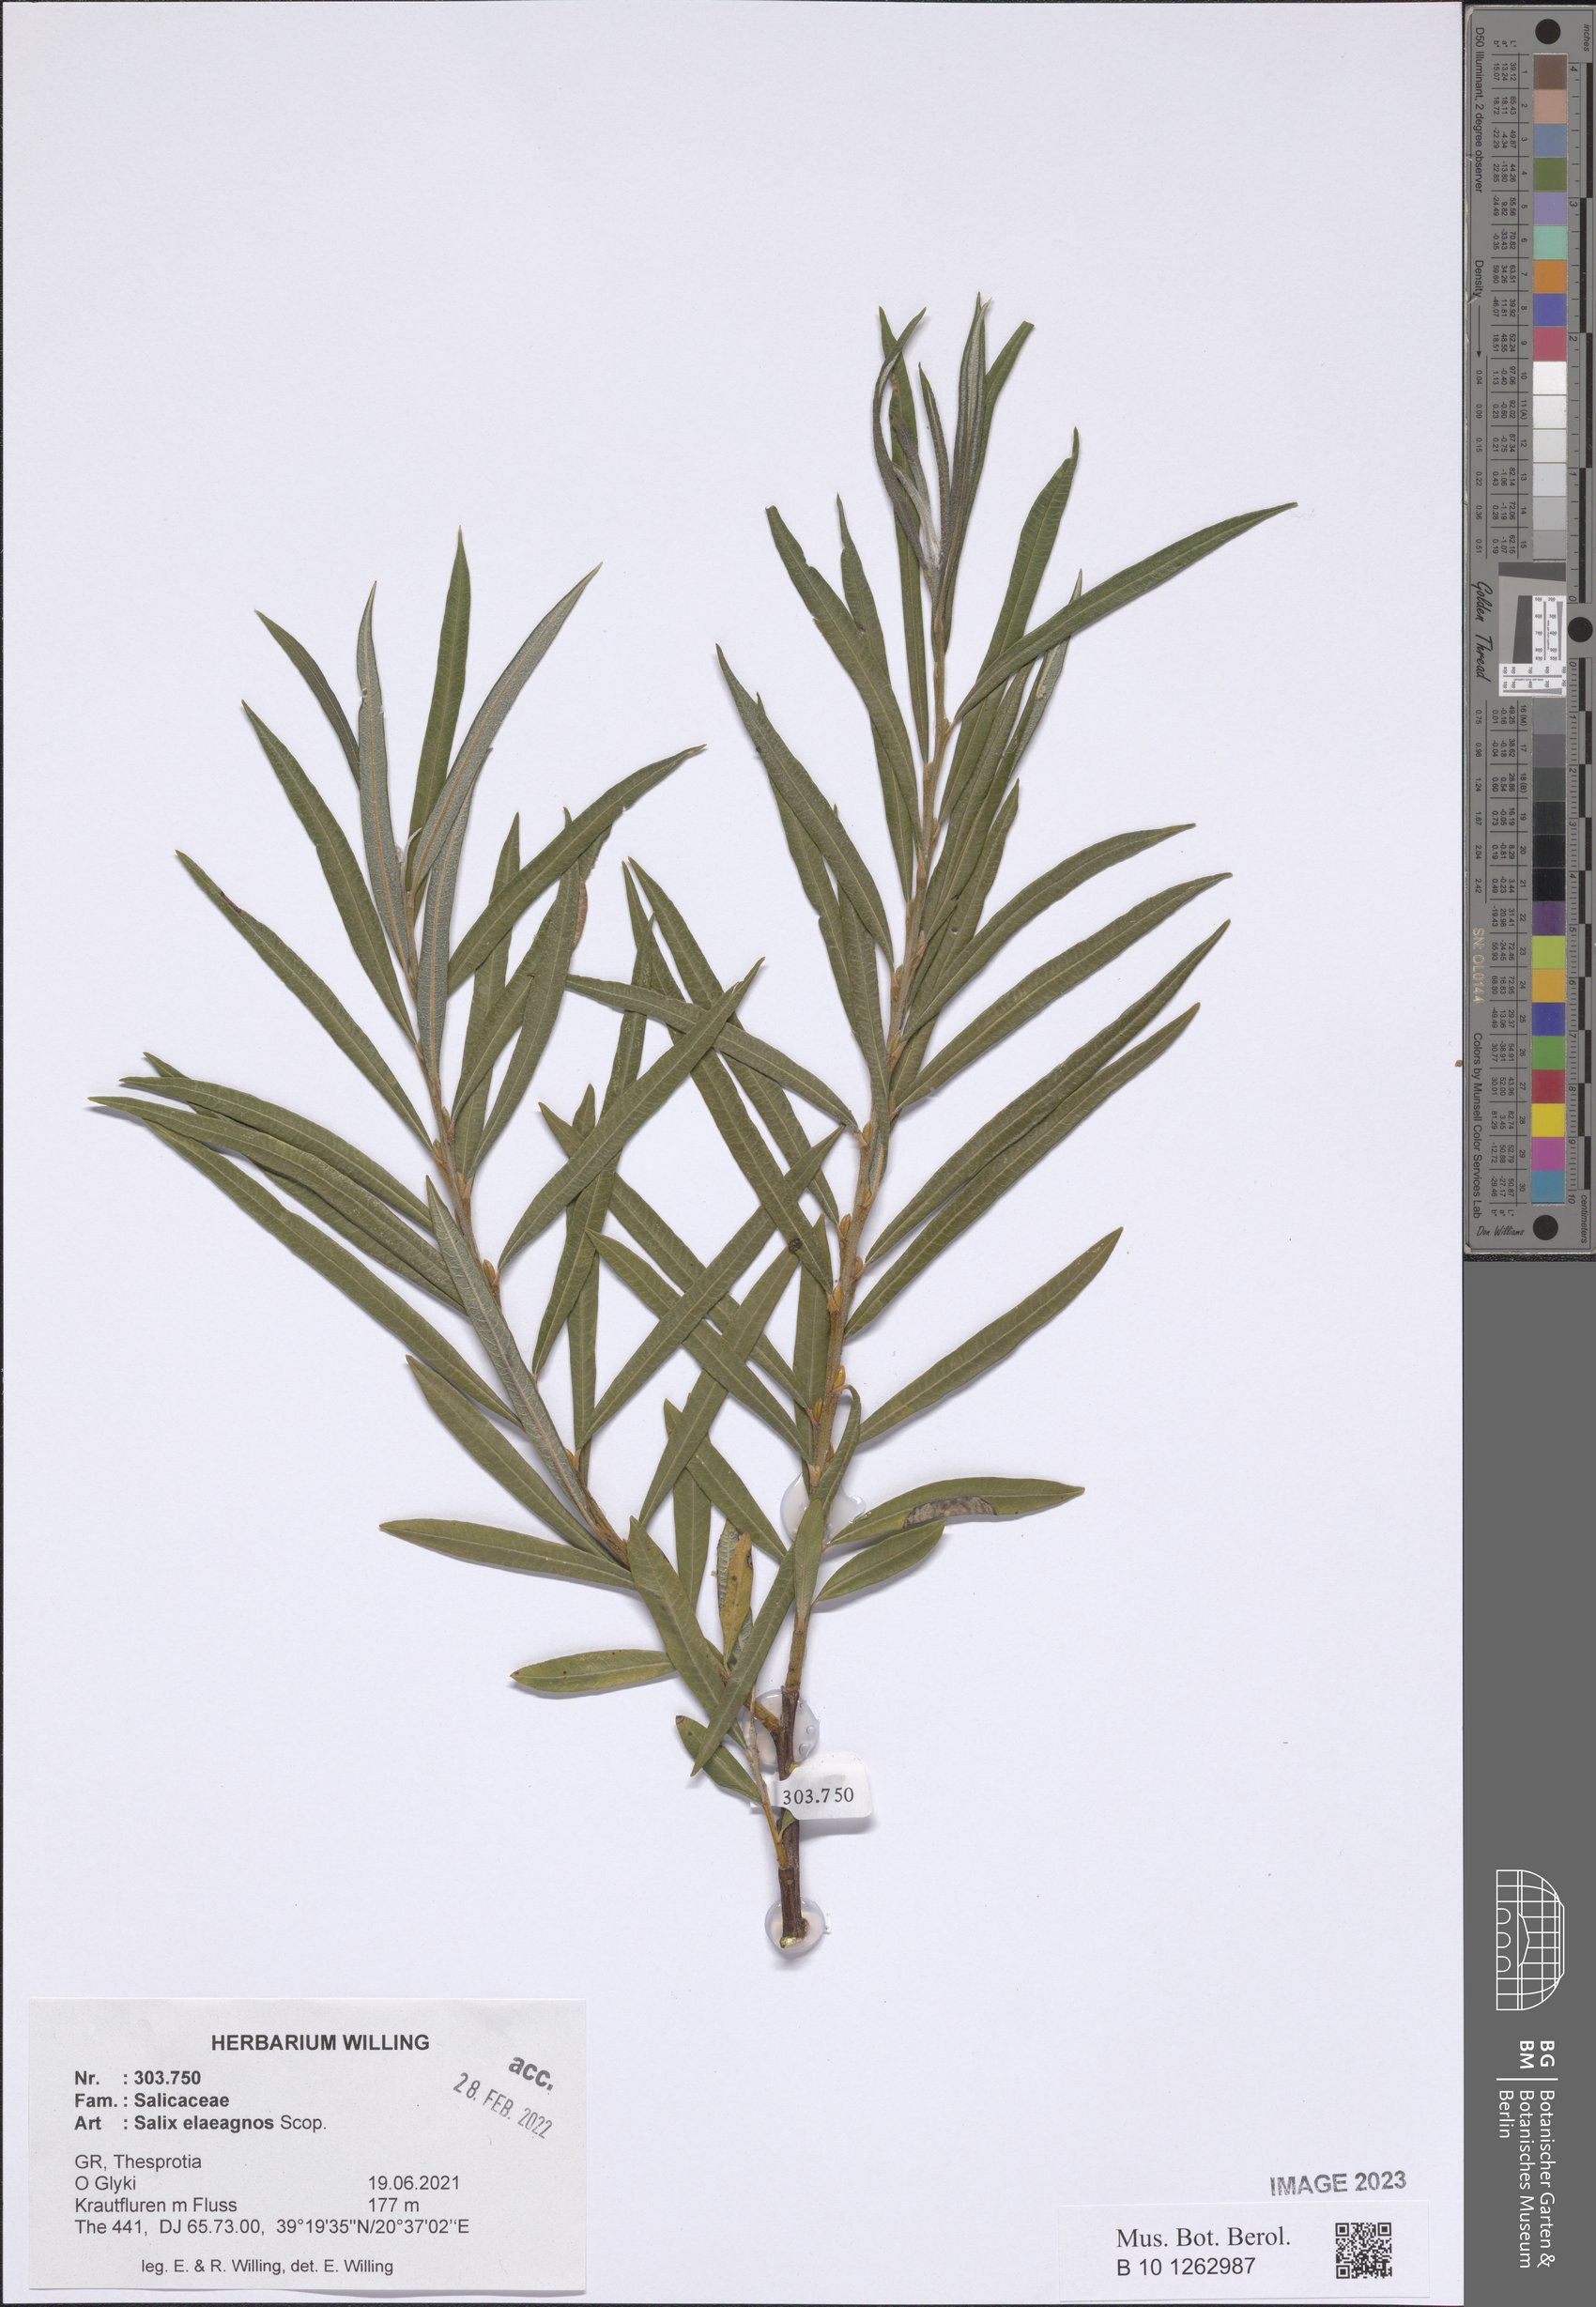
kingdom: Plantae
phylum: Tracheophyta
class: Magnoliopsida
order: Malpighiales
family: Salicaceae
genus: Salix
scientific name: Salix eleagnos
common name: Elaeagnus willow
